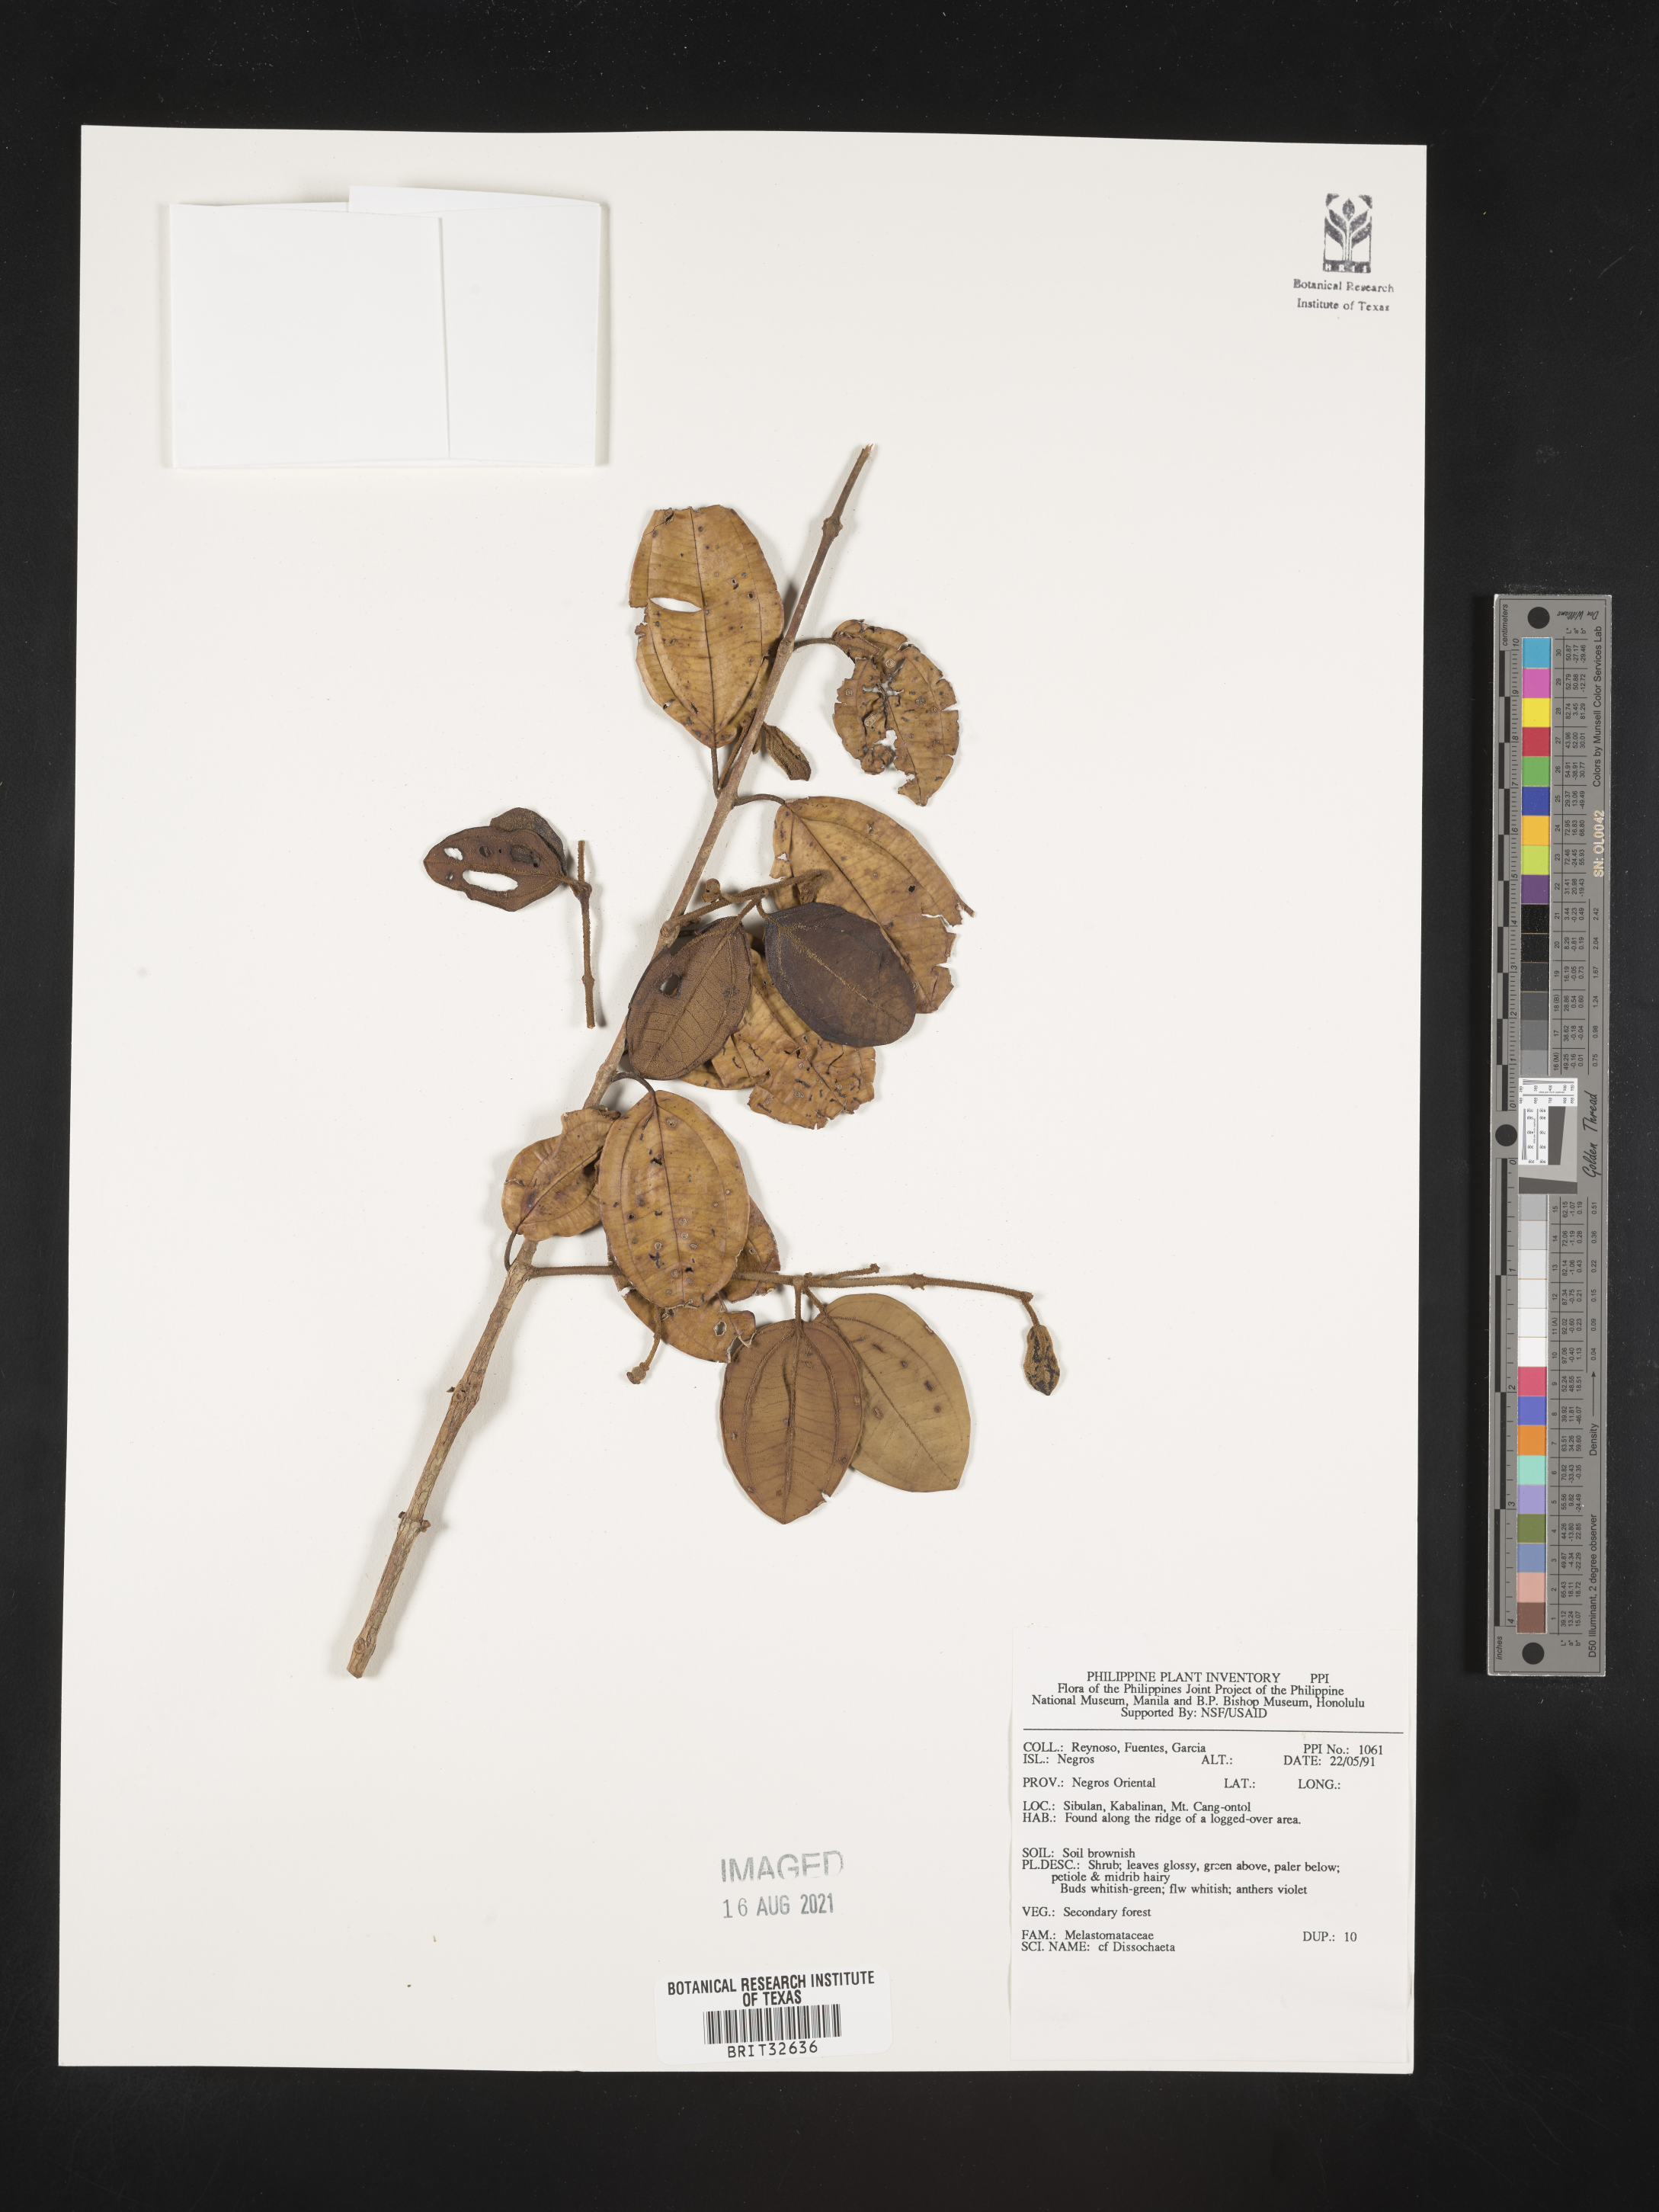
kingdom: Plantae
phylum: Tracheophyta
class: Magnoliopsida
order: Myrtales
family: Melastomataceae
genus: Dissochaeta
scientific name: Dissochaeta
